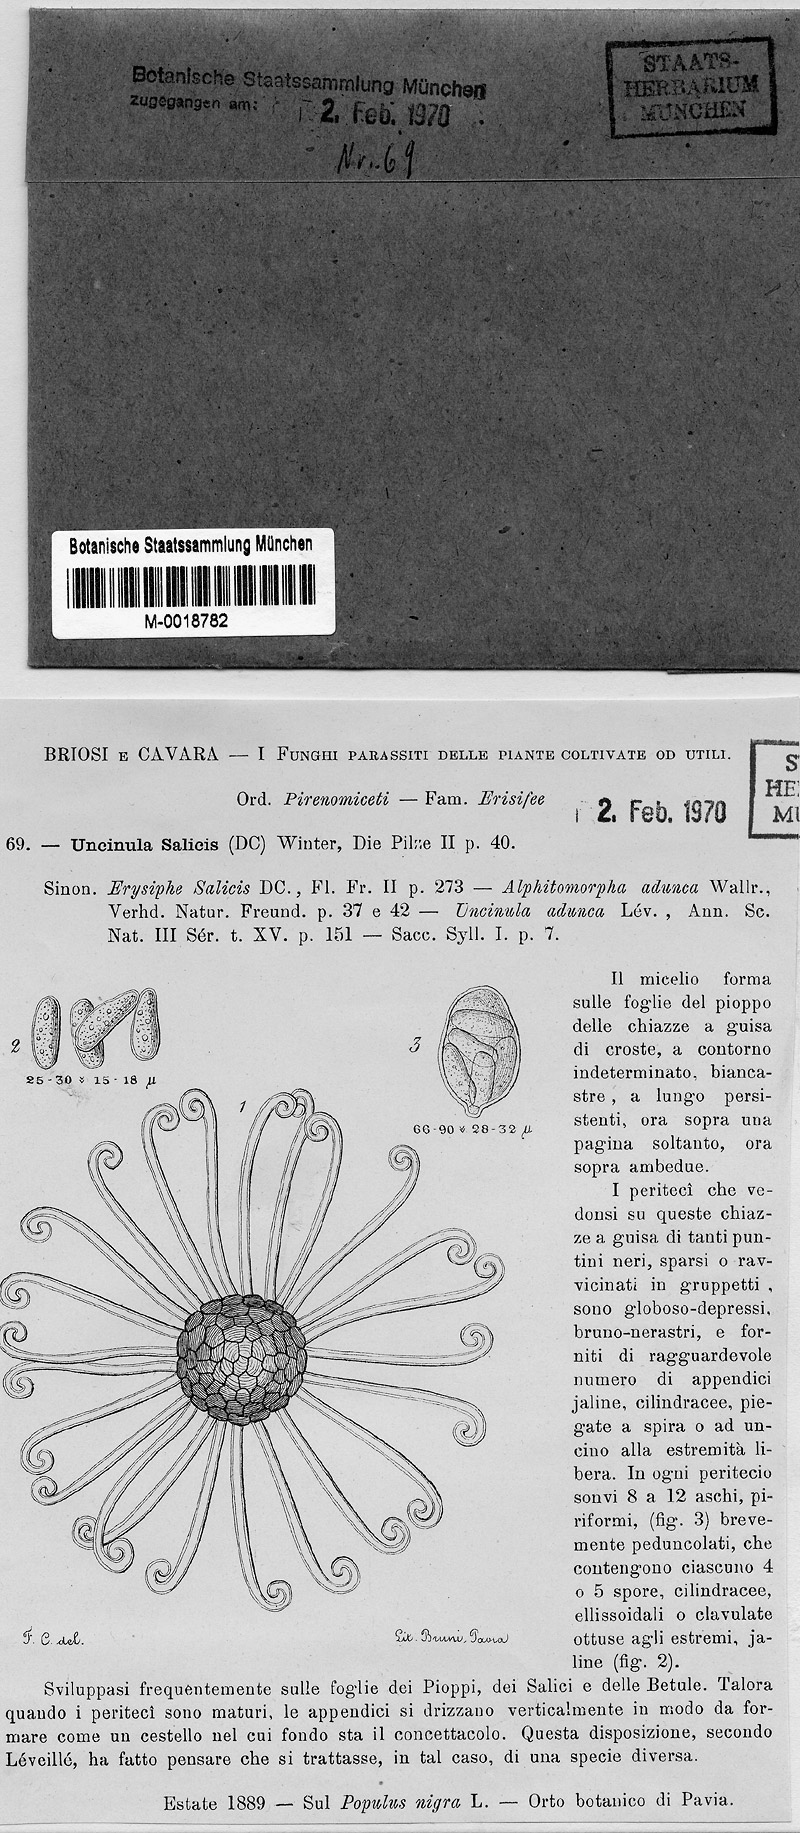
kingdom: Fungi
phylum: Ascomycota
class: Leotiomycetes
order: Helotiales
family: Erysiphaceae
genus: Erysiphe
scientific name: Erysiphe adunca
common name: Willow mildew
